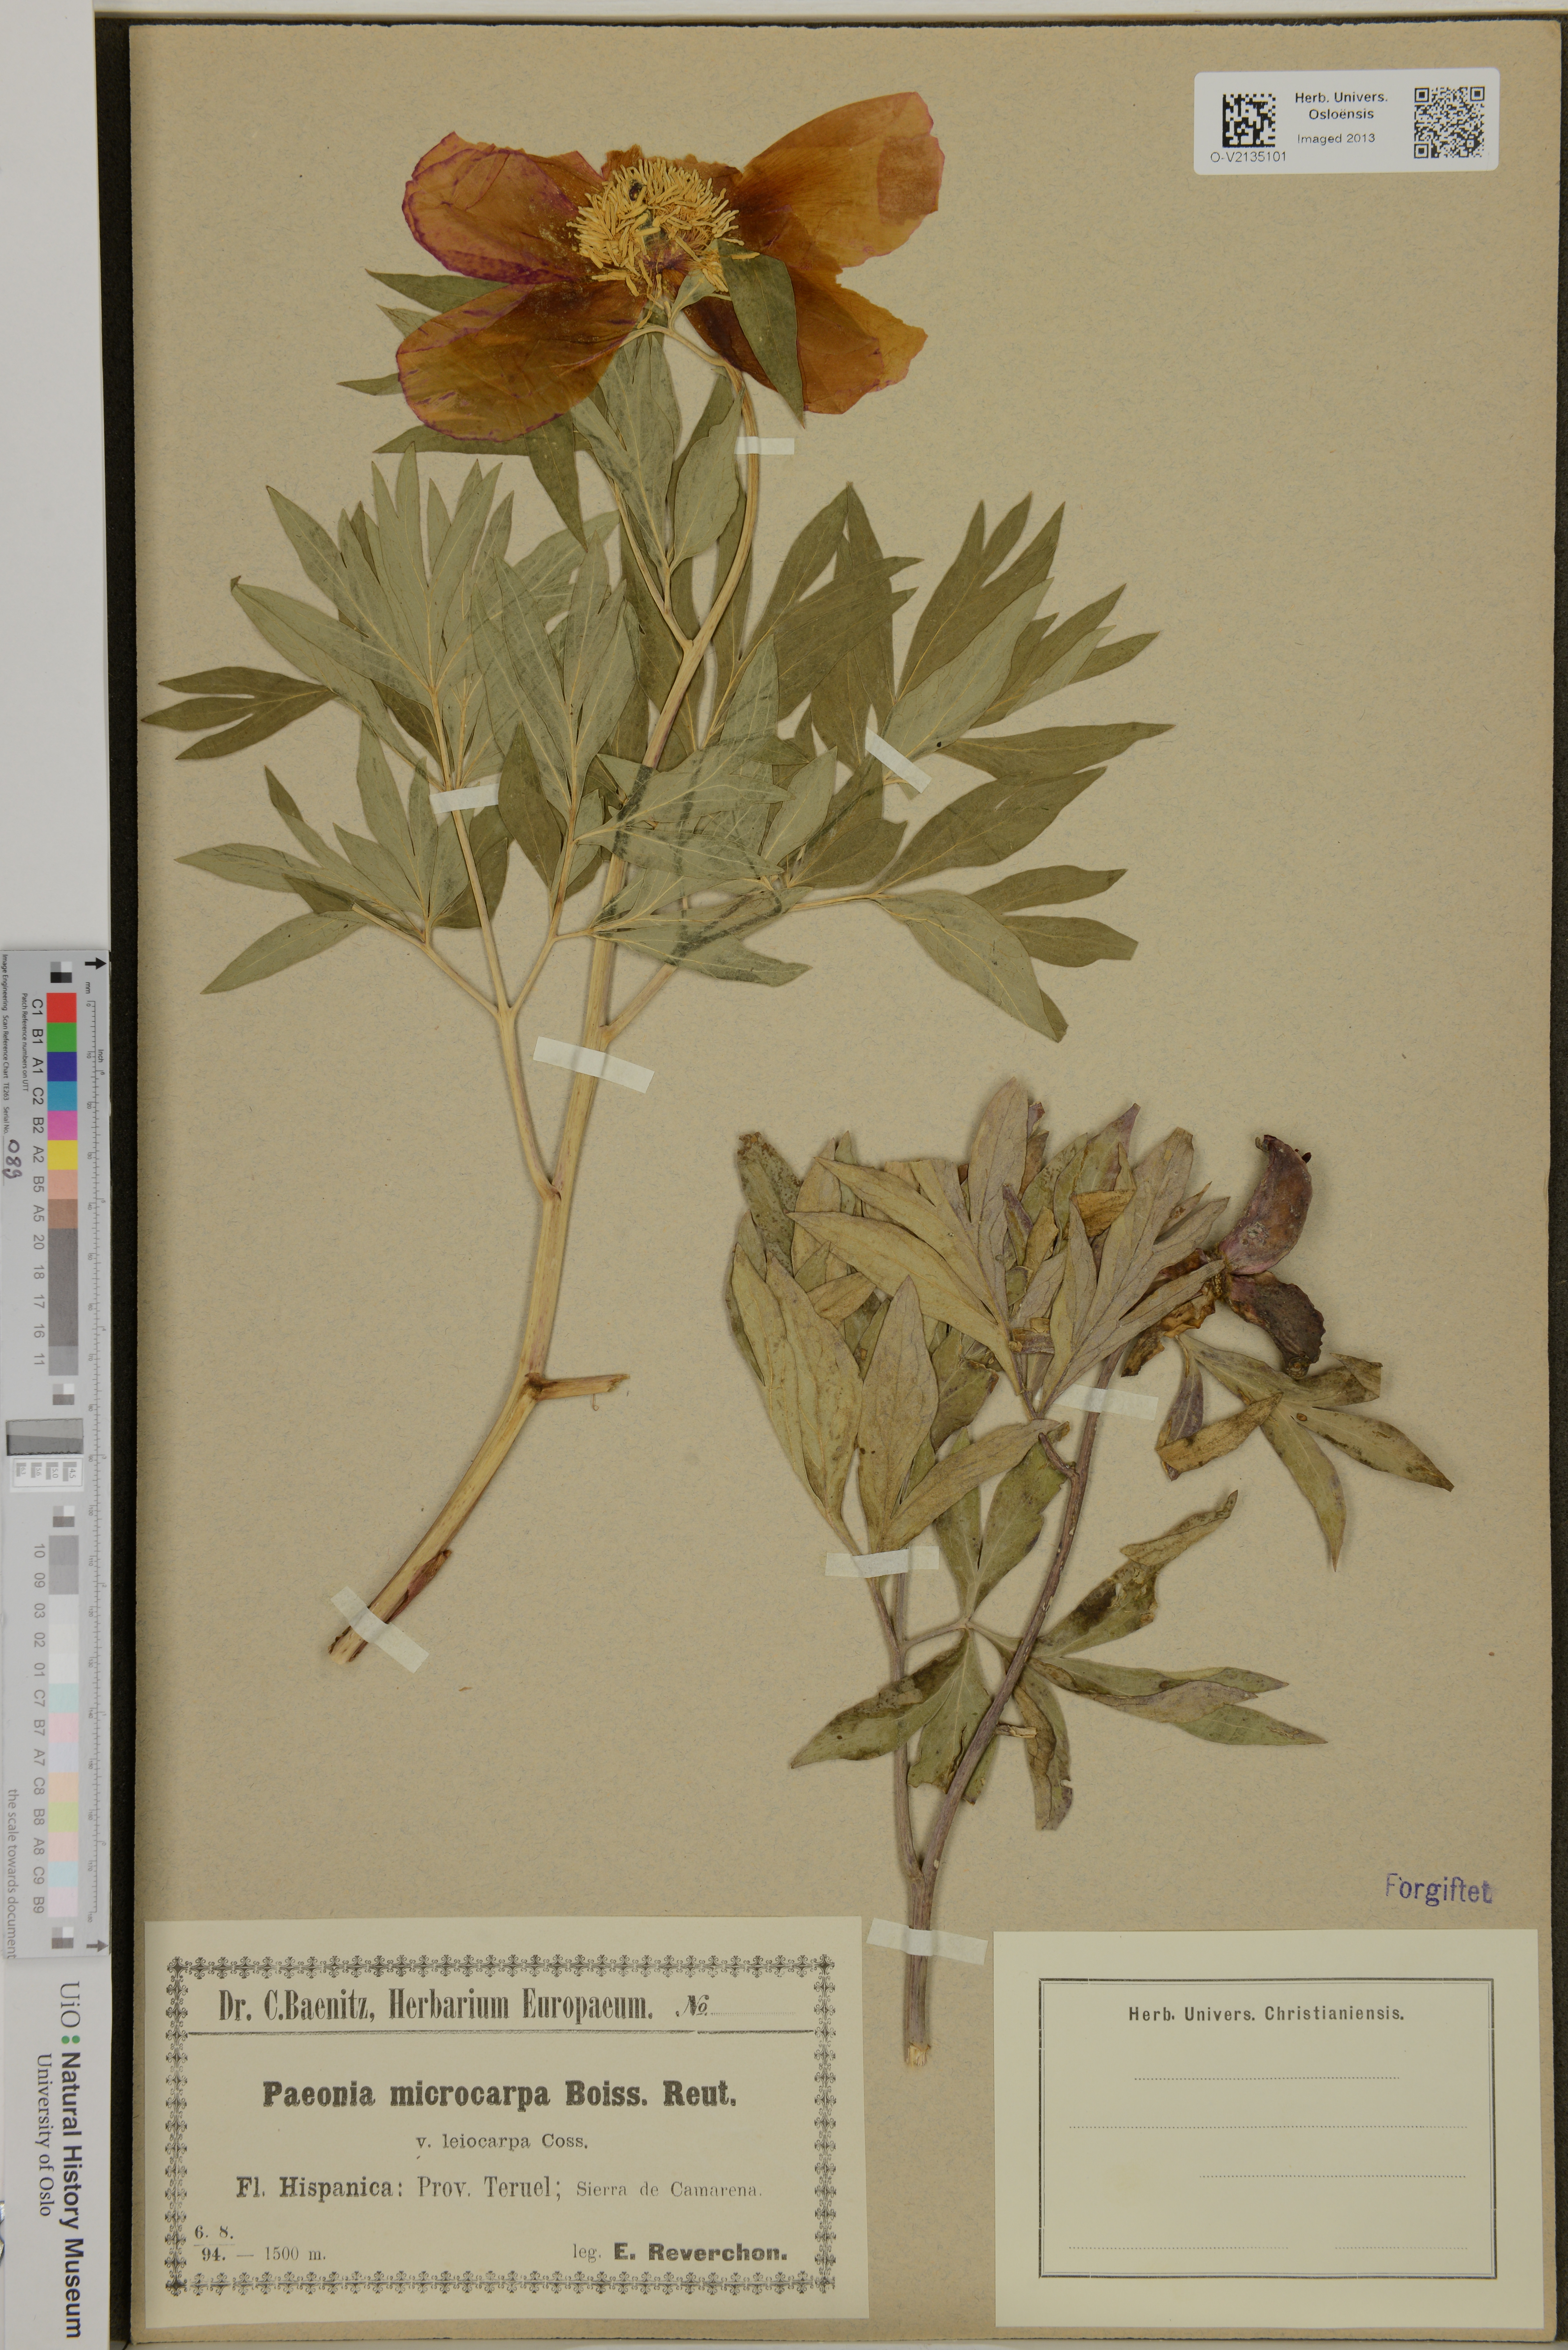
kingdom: Plantae
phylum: Tracheophyta
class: Magnoliopsida
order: Saxifragales
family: Paeoniaceae
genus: Paeonia
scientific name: Paeonia officinalis
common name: Common peony
